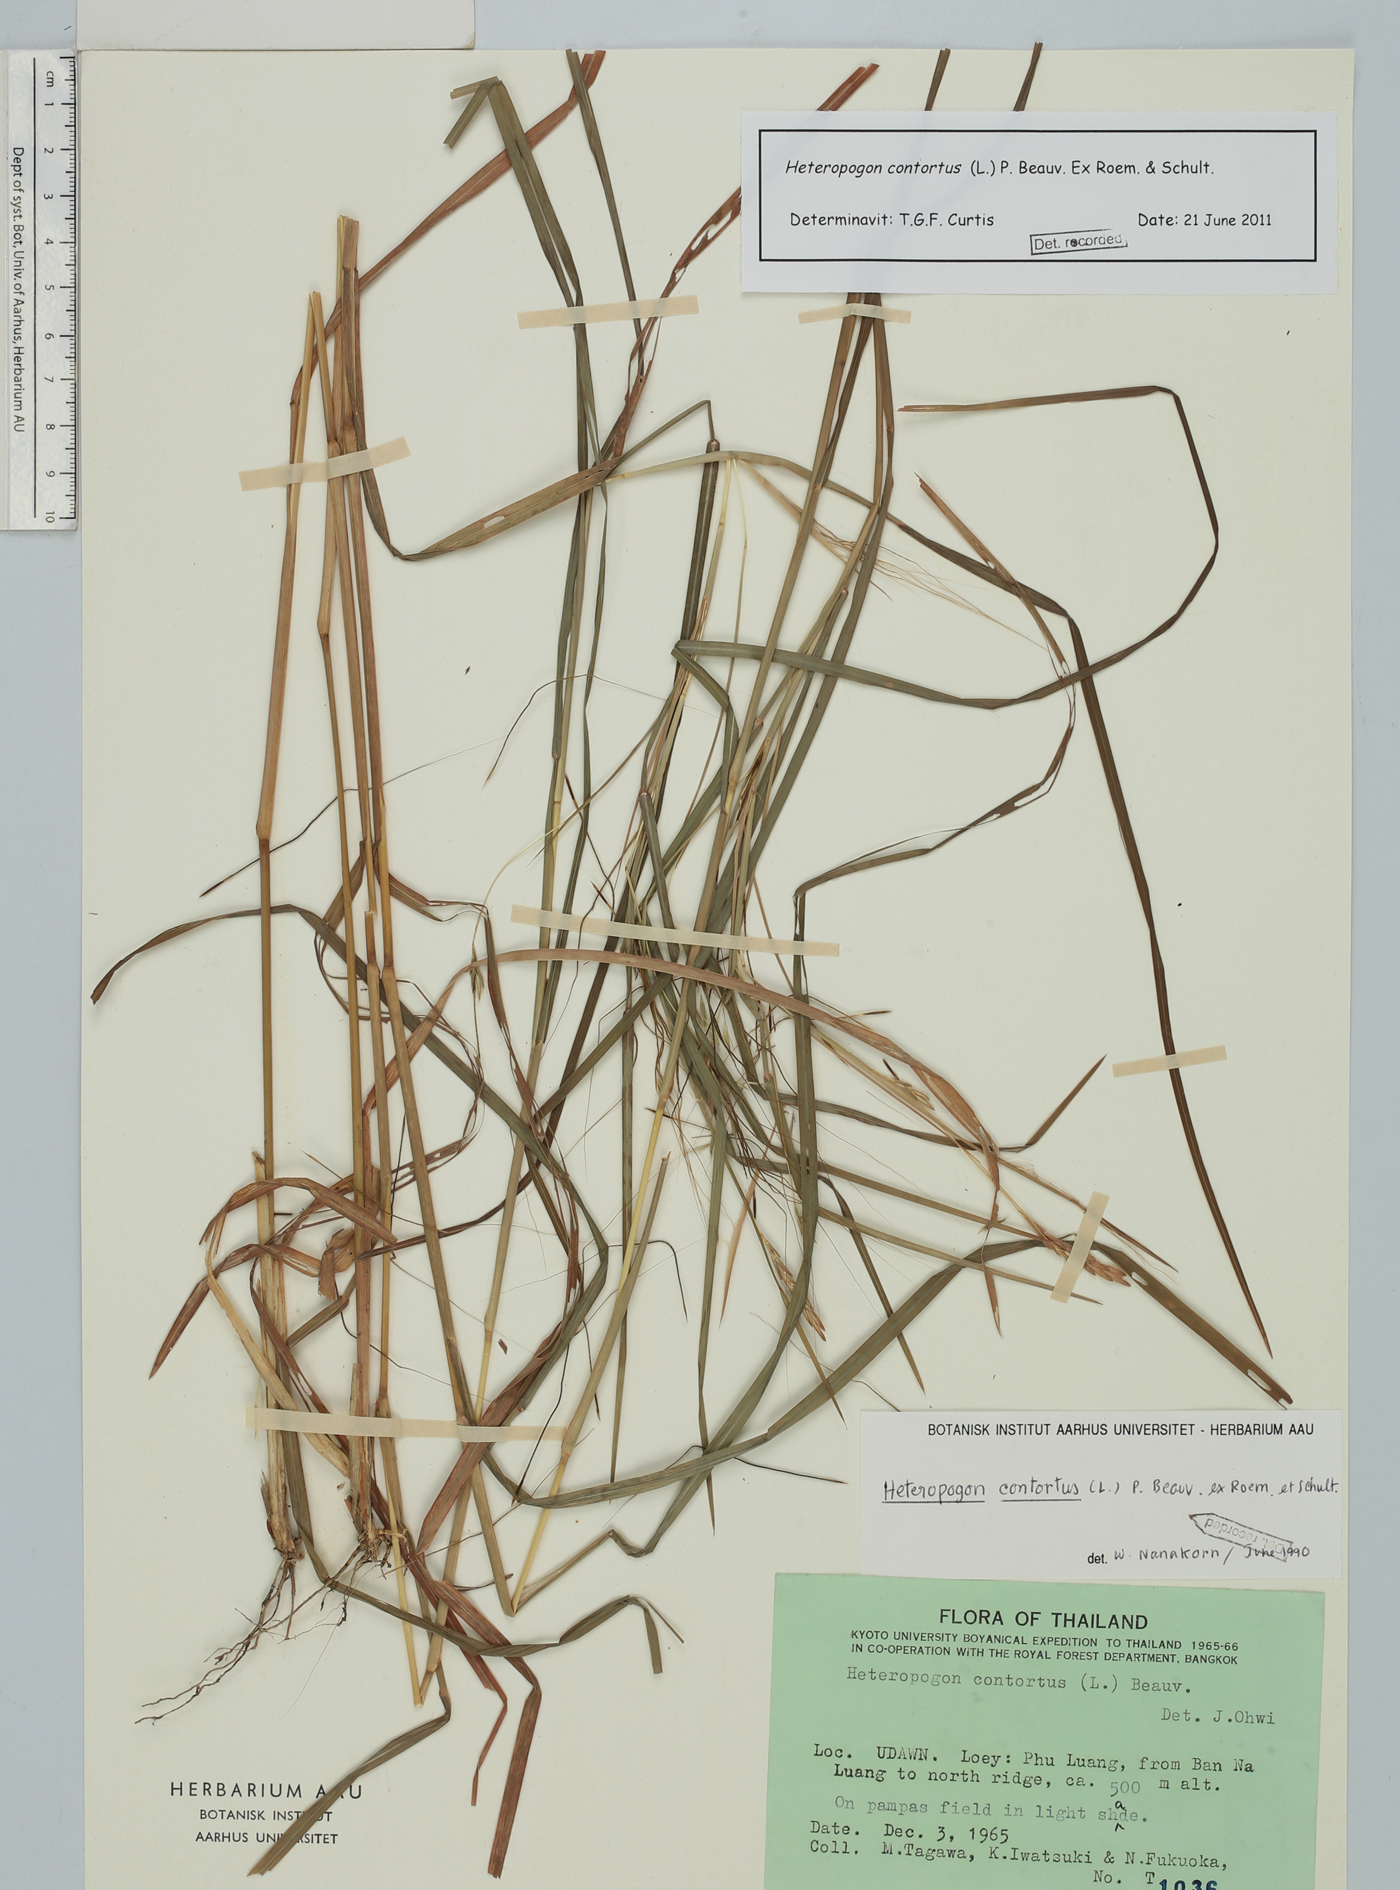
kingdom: Plantae
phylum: Tracheophyta
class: Liliopsida
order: Poales
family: Poaceae
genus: Heteropogon
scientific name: Heteropogon contortus
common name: Tanglehead
